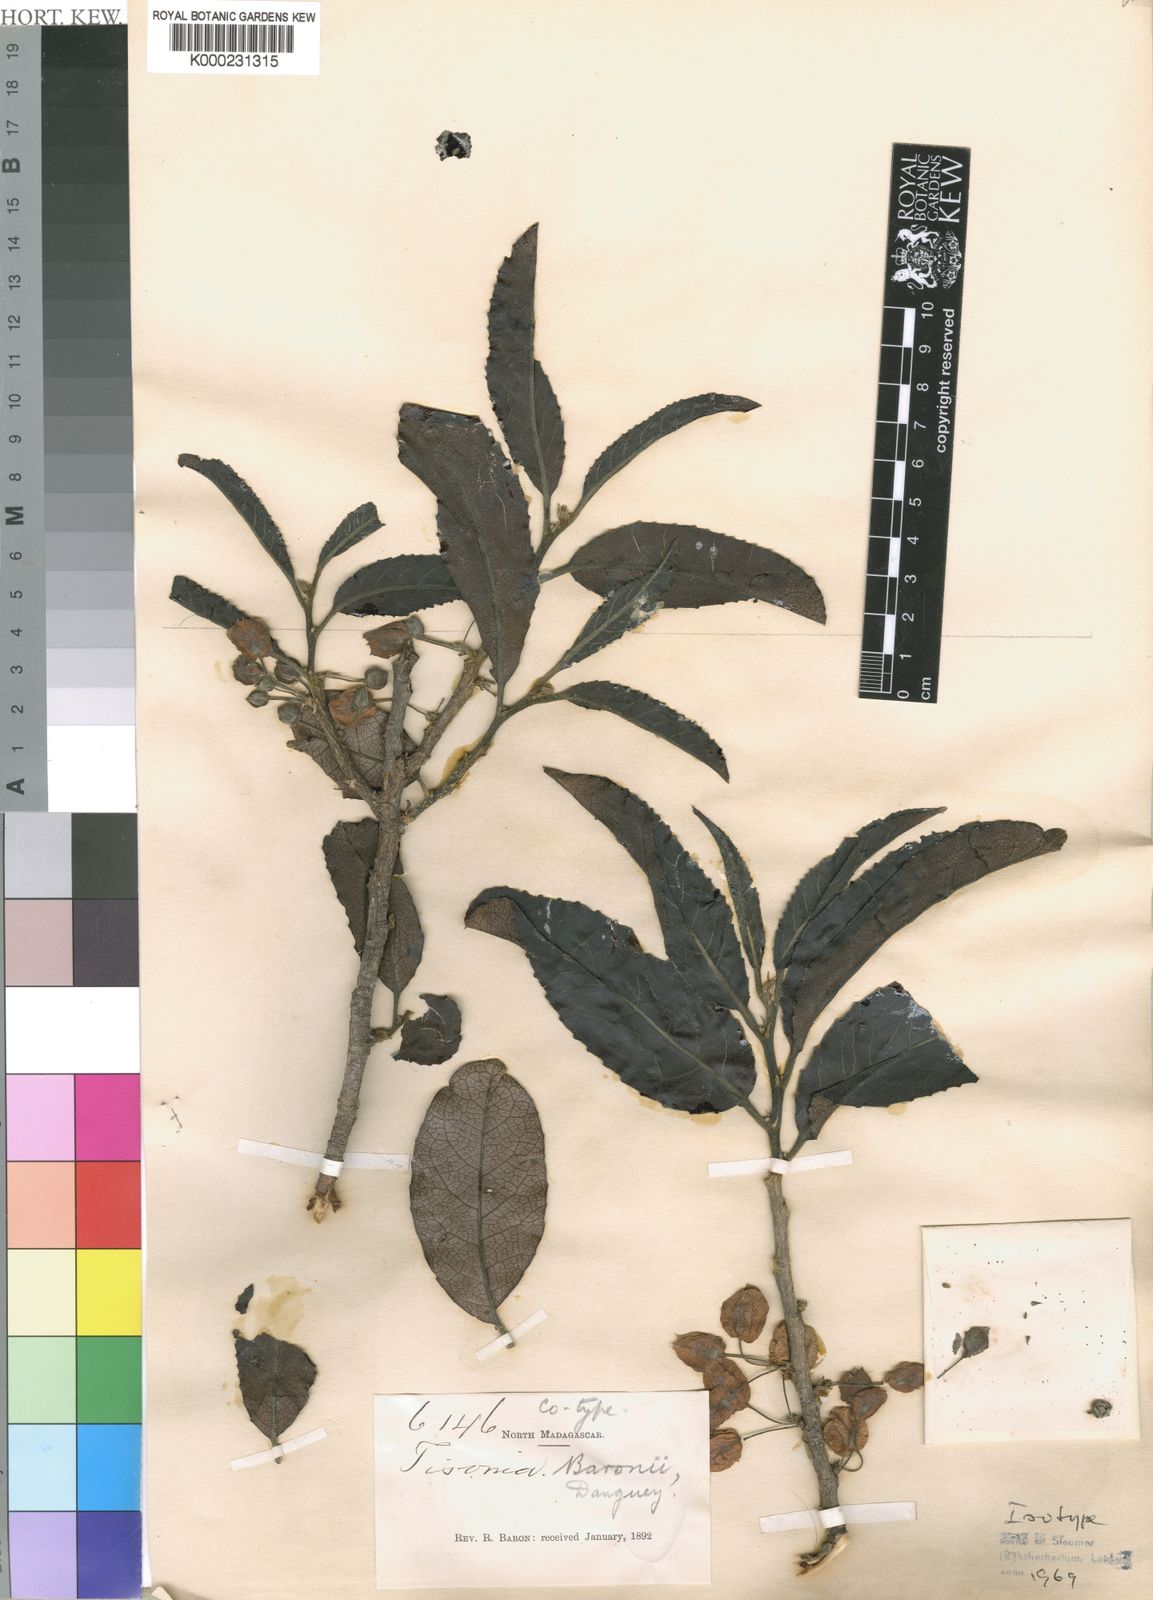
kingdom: Plantae
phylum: Tracheophyta
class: Magnoliopsida
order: Malpighiales
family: Salicaceae
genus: Tisonia
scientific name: Tisonia baronii
